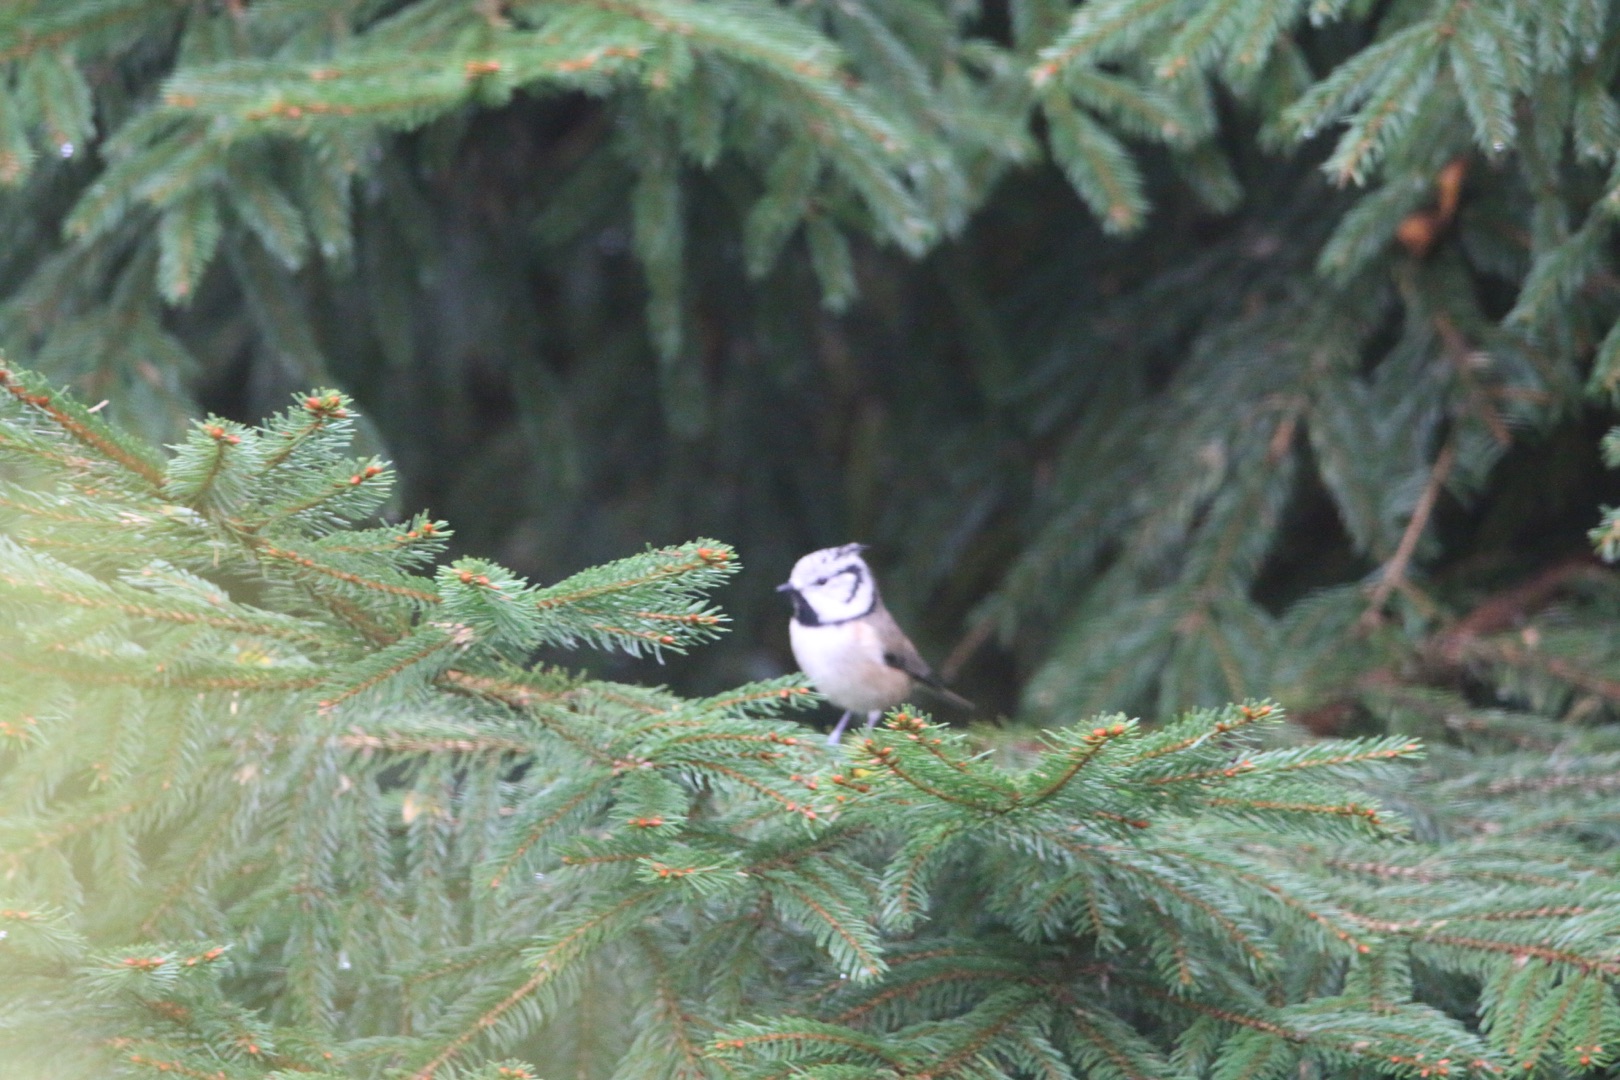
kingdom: Animalia
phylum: Chordata
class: Aves
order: Passeriformes
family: Paridae
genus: Lophophanes
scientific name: Lophophanes cristatus
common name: Topmejse
